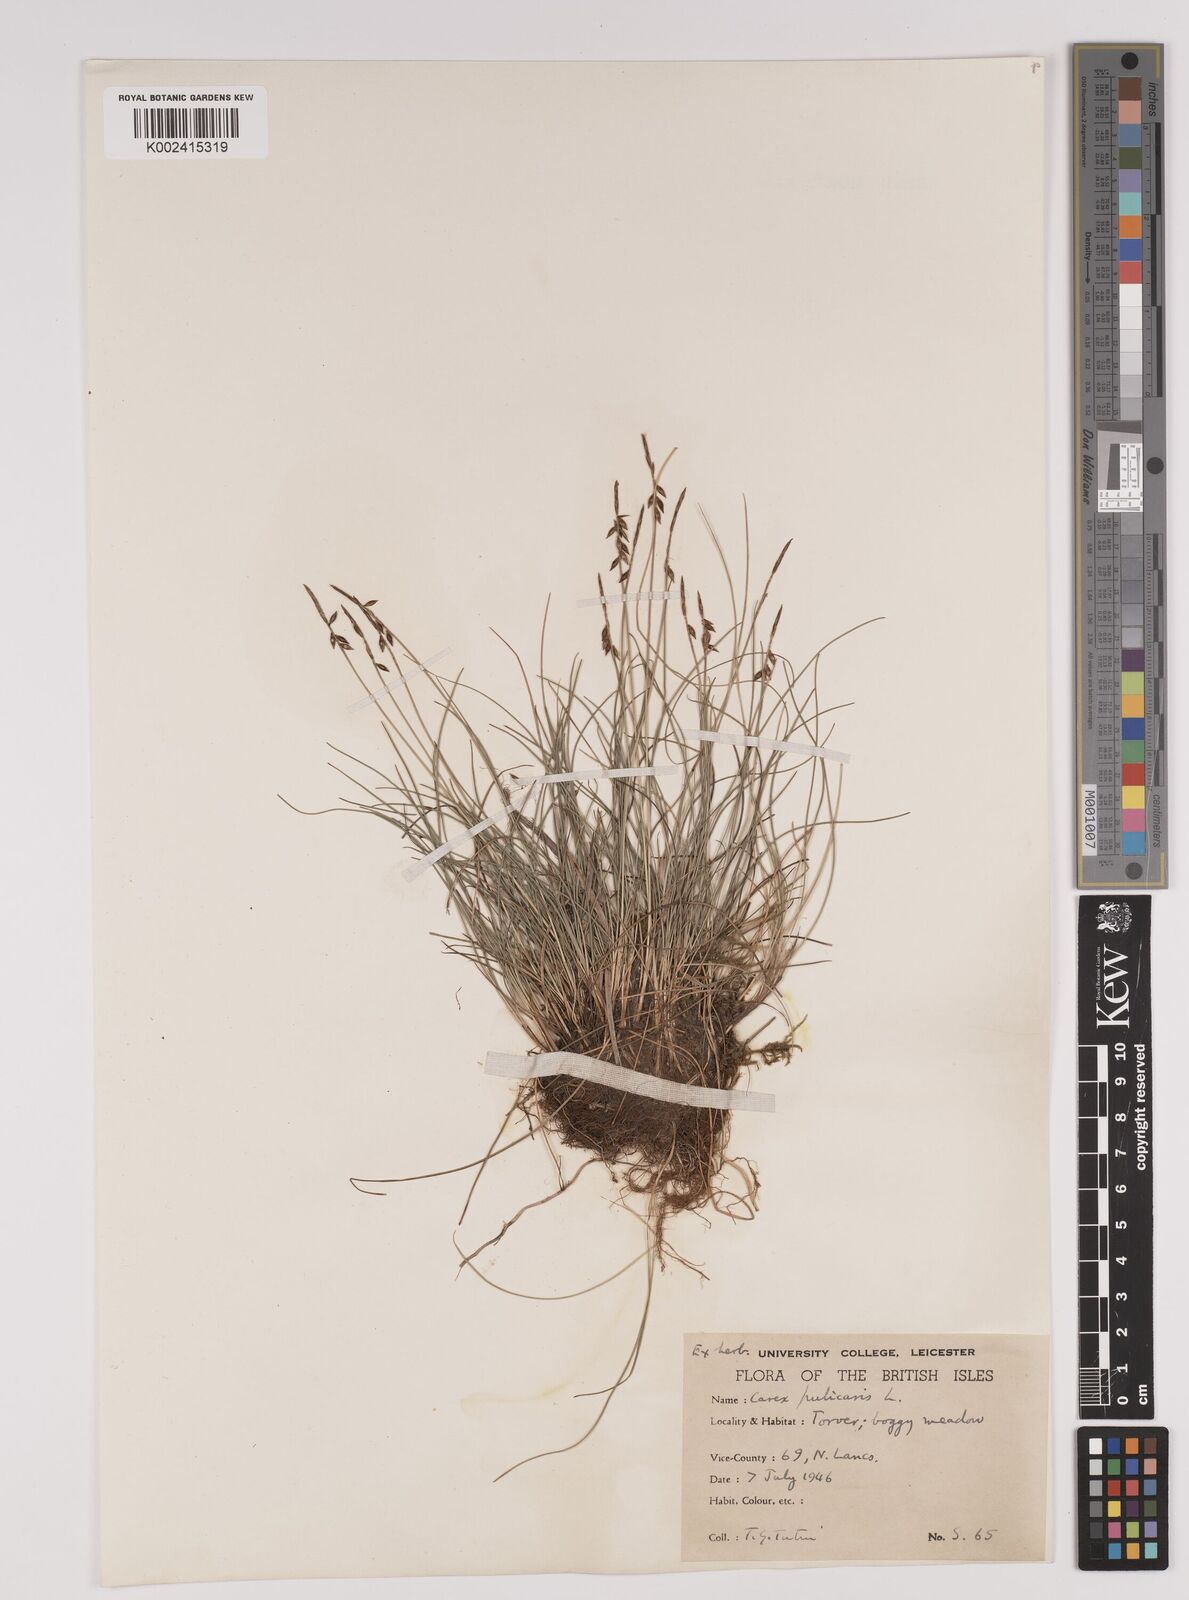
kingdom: Plantae
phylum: Tracheophyta
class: Liliopsida
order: Poales
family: Cyperaceae
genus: Carex
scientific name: Carex pulicaris
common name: Flea sedge
